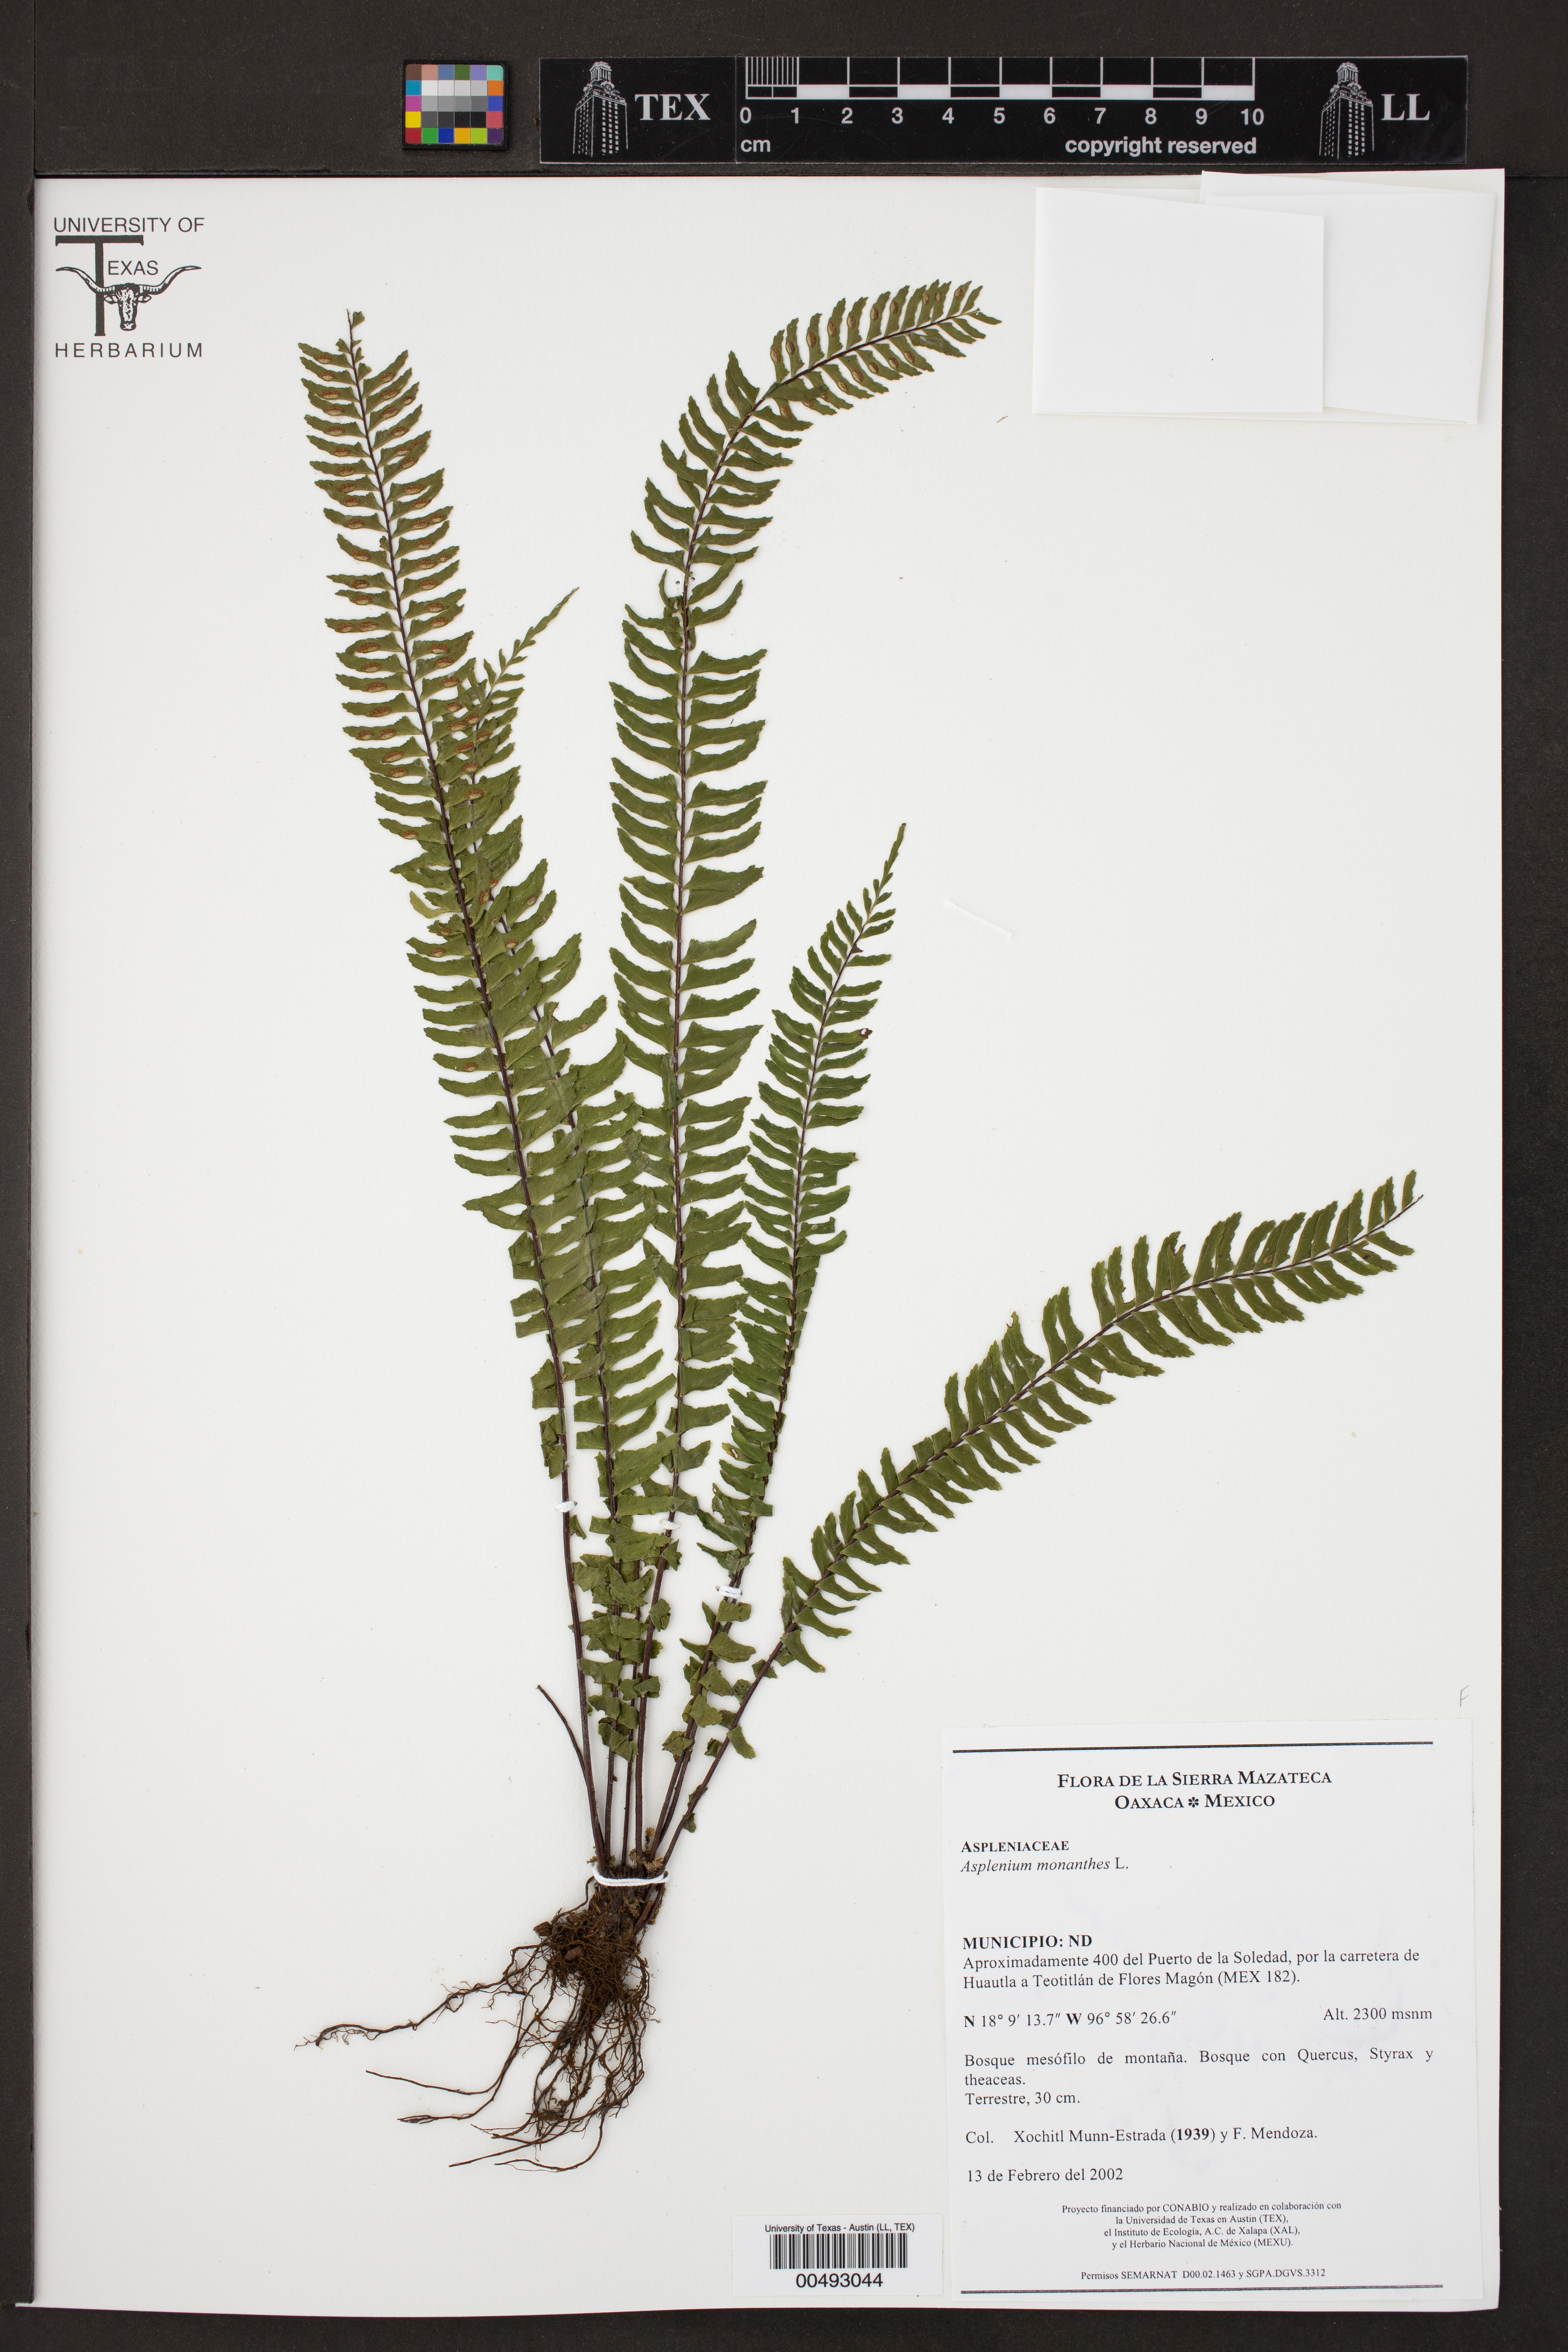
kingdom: Plantae
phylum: Tracheophyta
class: Polypodiopsida
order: Polypodiales
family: Aspleniaceae
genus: Asplenium
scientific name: Asplenium monanthes
